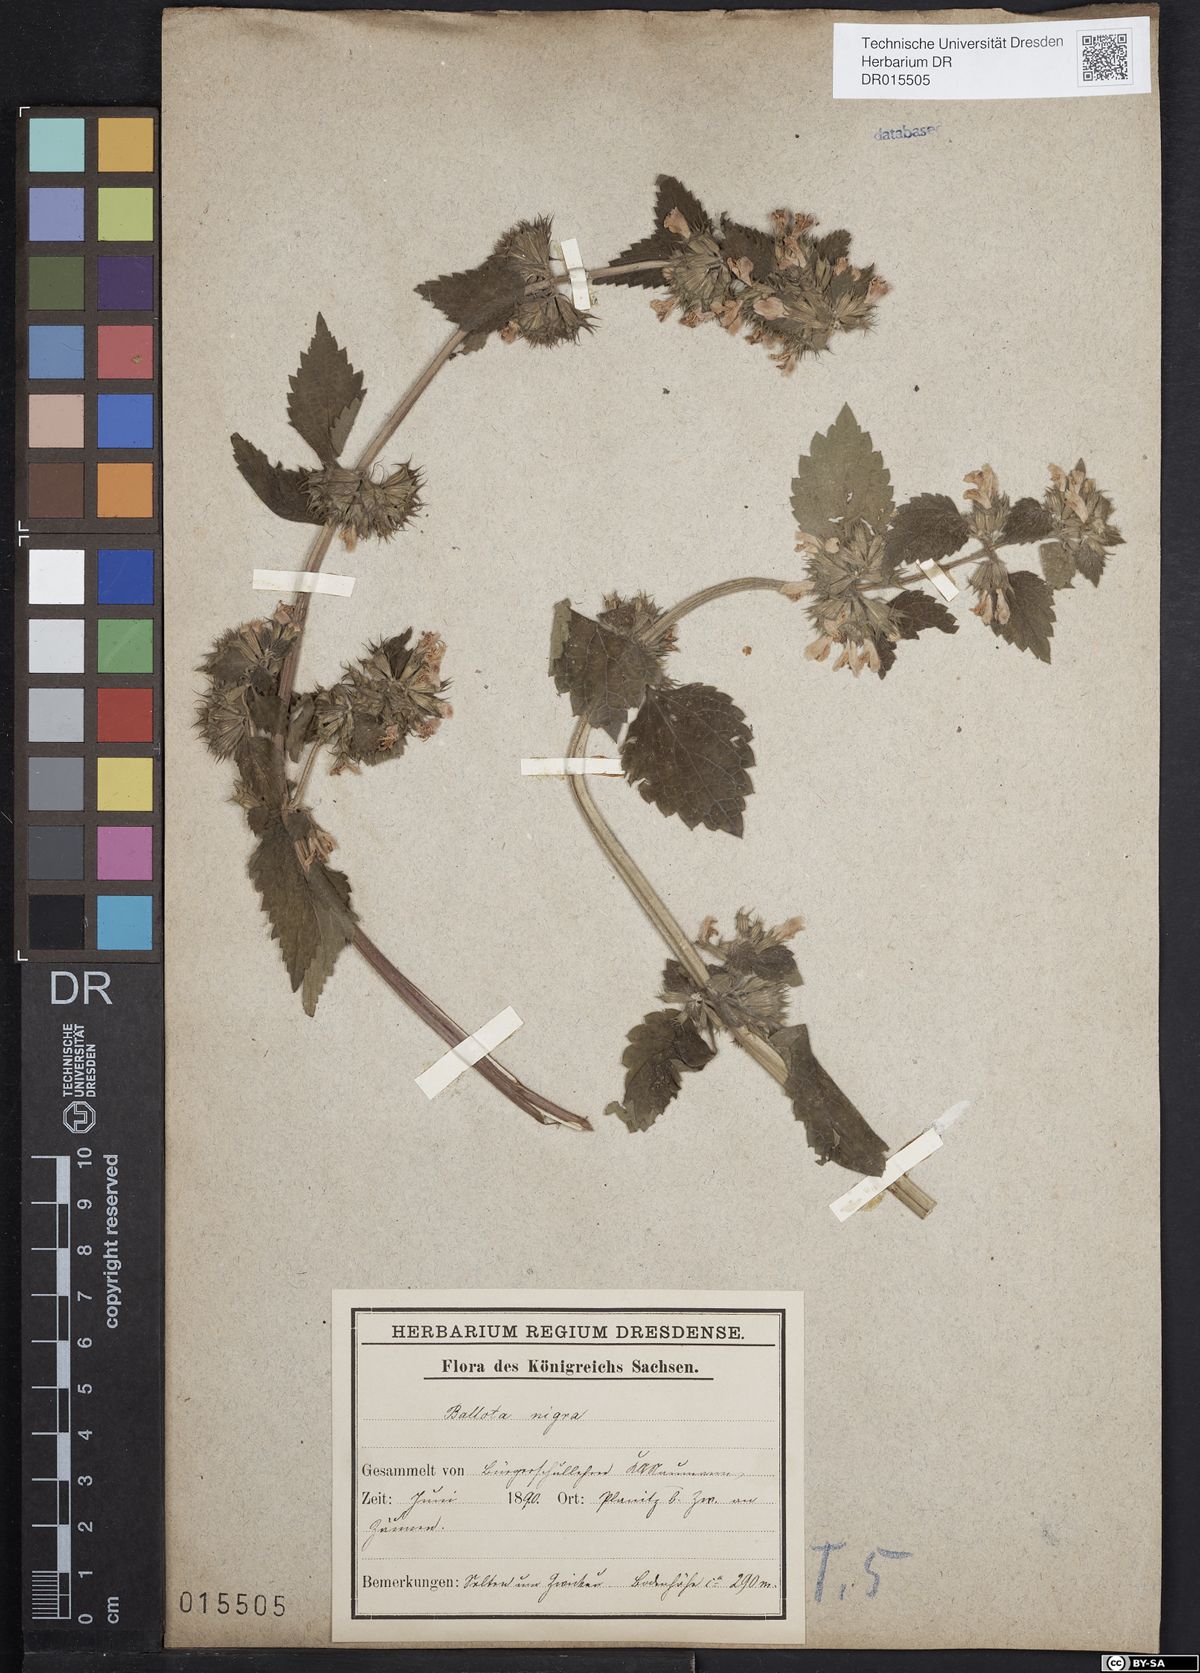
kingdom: Plantae
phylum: Tracheophyta
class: Magnoliopsida
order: Lamiales
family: Lamiaceae
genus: Ballota
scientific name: Ballota nigra
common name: Black horehound
